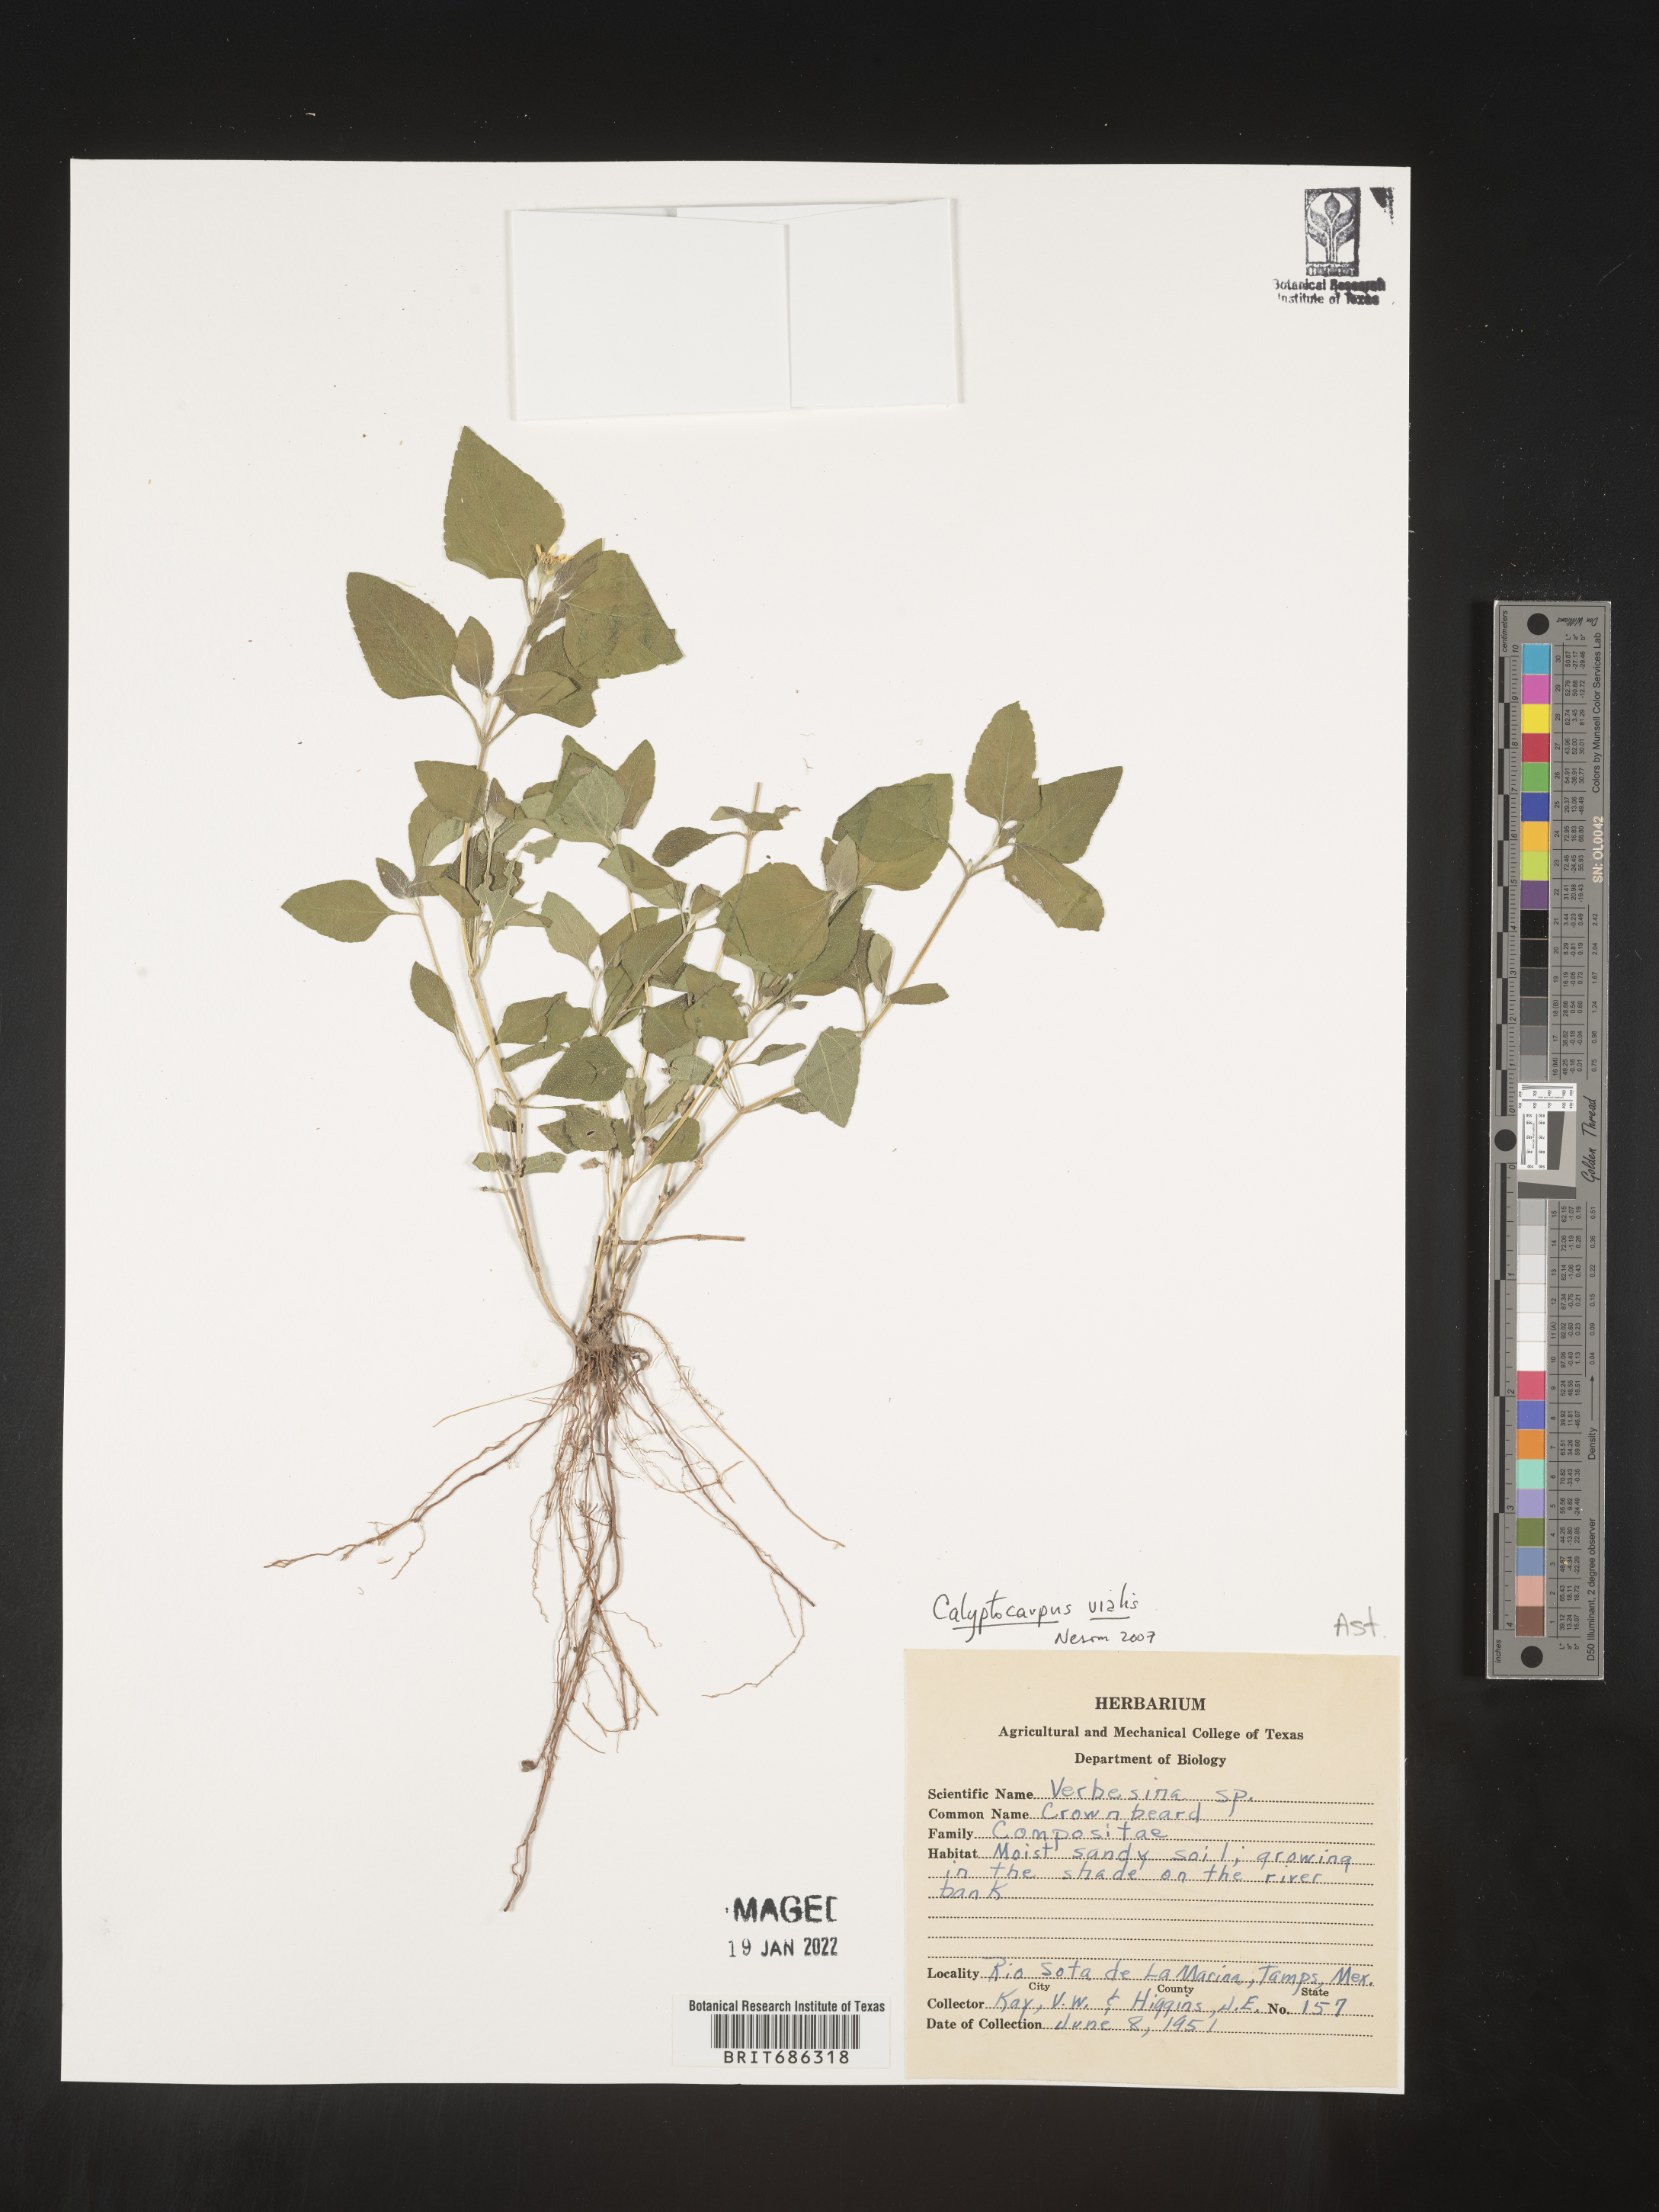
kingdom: Plantae
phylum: Tracheophyta
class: Magnoliopsida
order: Asterales
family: Asteraceae
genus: Calyptocarpus
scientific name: Calyptocarpus
